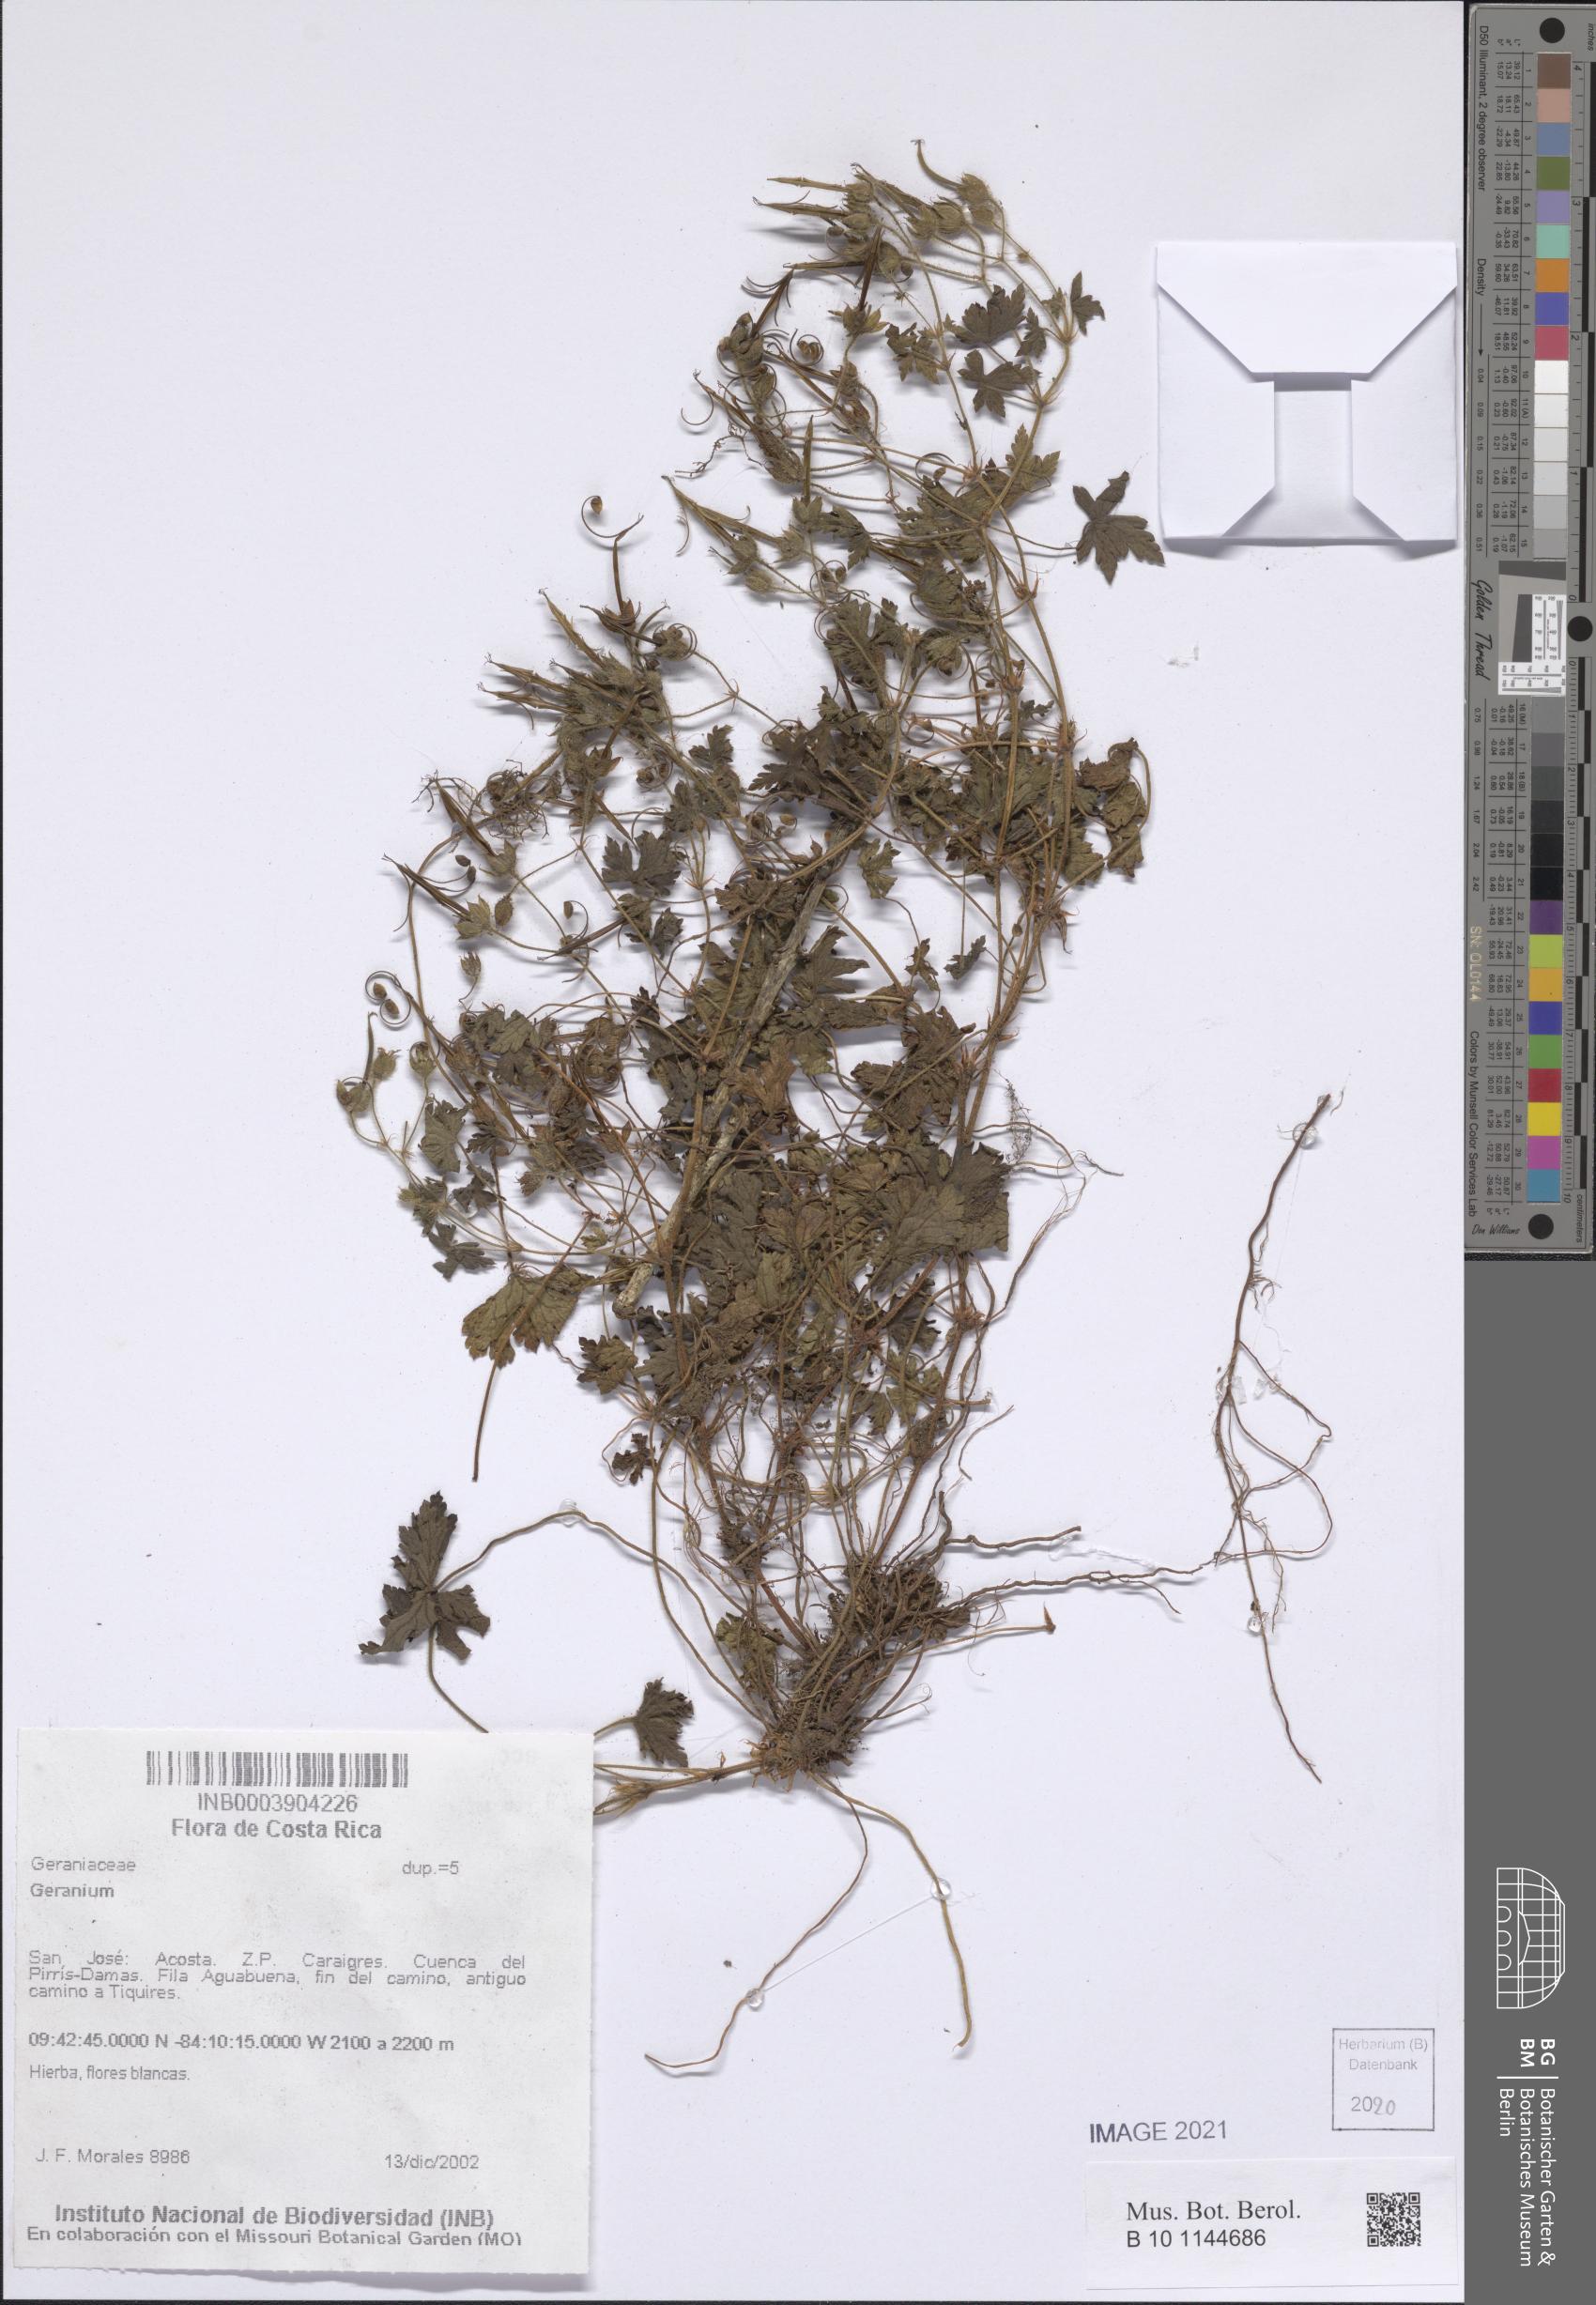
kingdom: Plantae
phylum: Tracheophyta
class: Magnoliopsida
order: Geraniales
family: Geraniaceae
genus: Geranium
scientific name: Geranium
